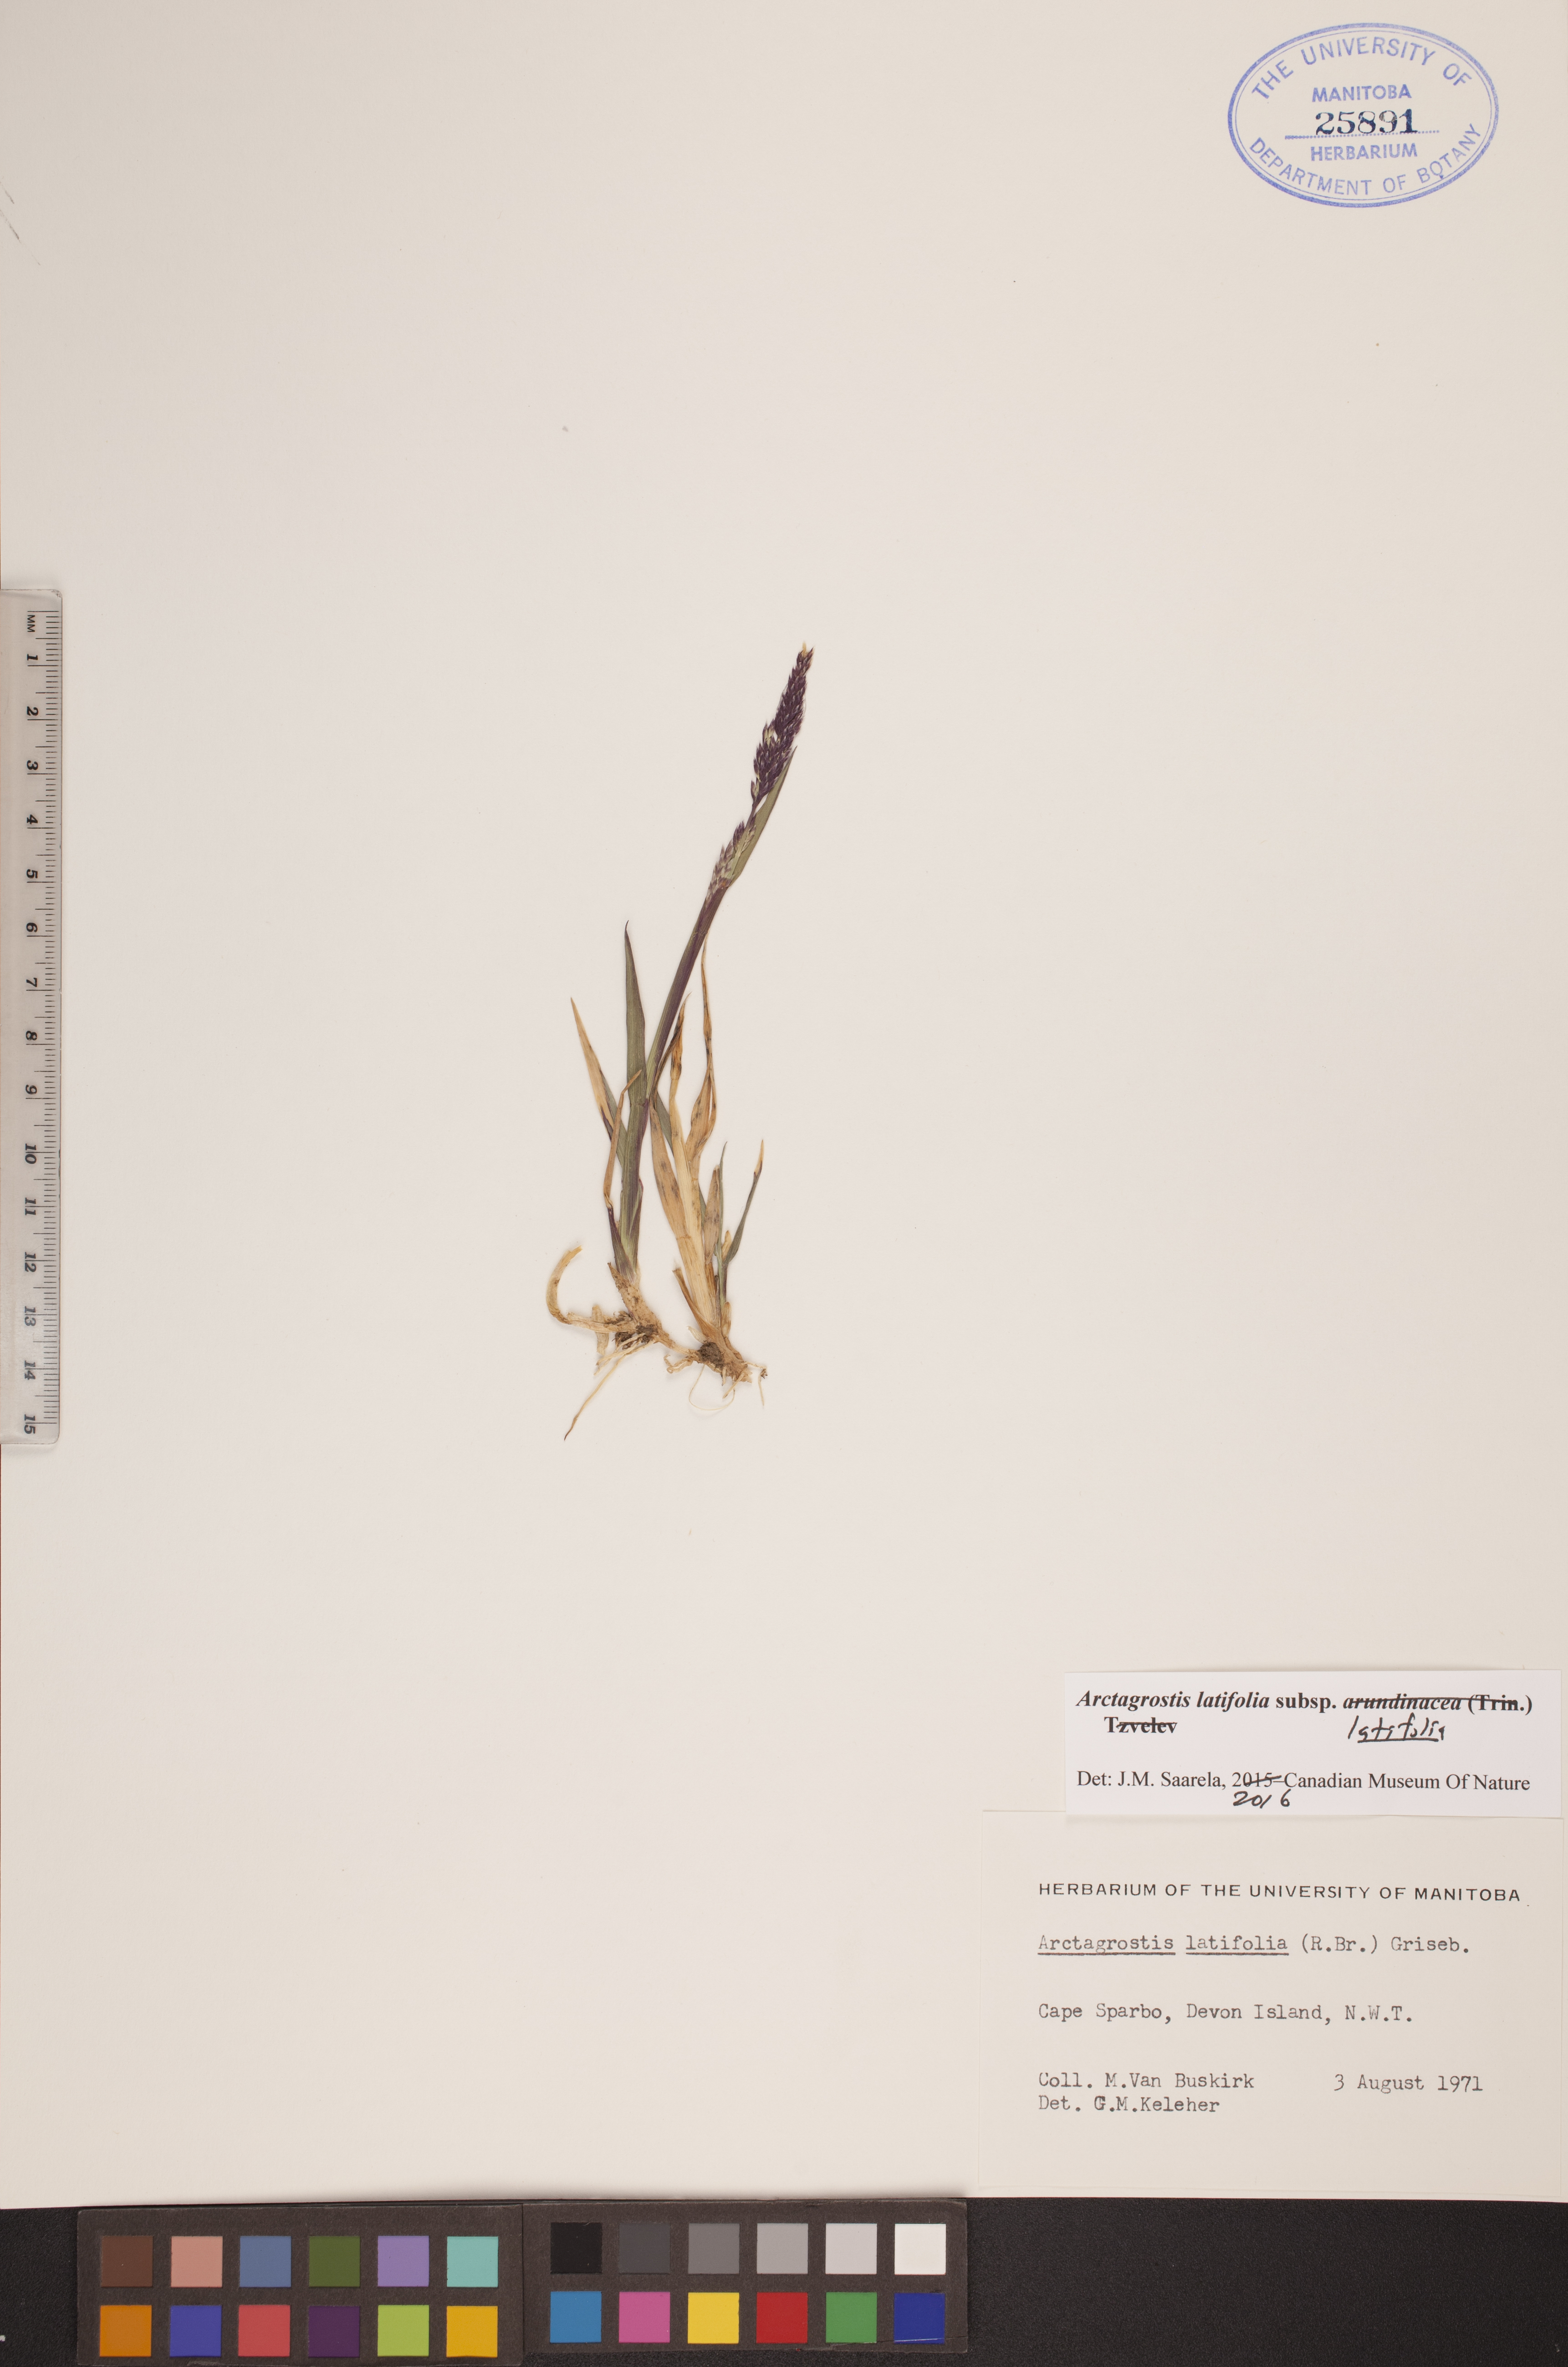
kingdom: Plantae
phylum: Tracheophyta
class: Liliopsida
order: Poales
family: Poaceae
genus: Arctagrostis
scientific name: Arctagrostis latifolia
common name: Arctic grass
